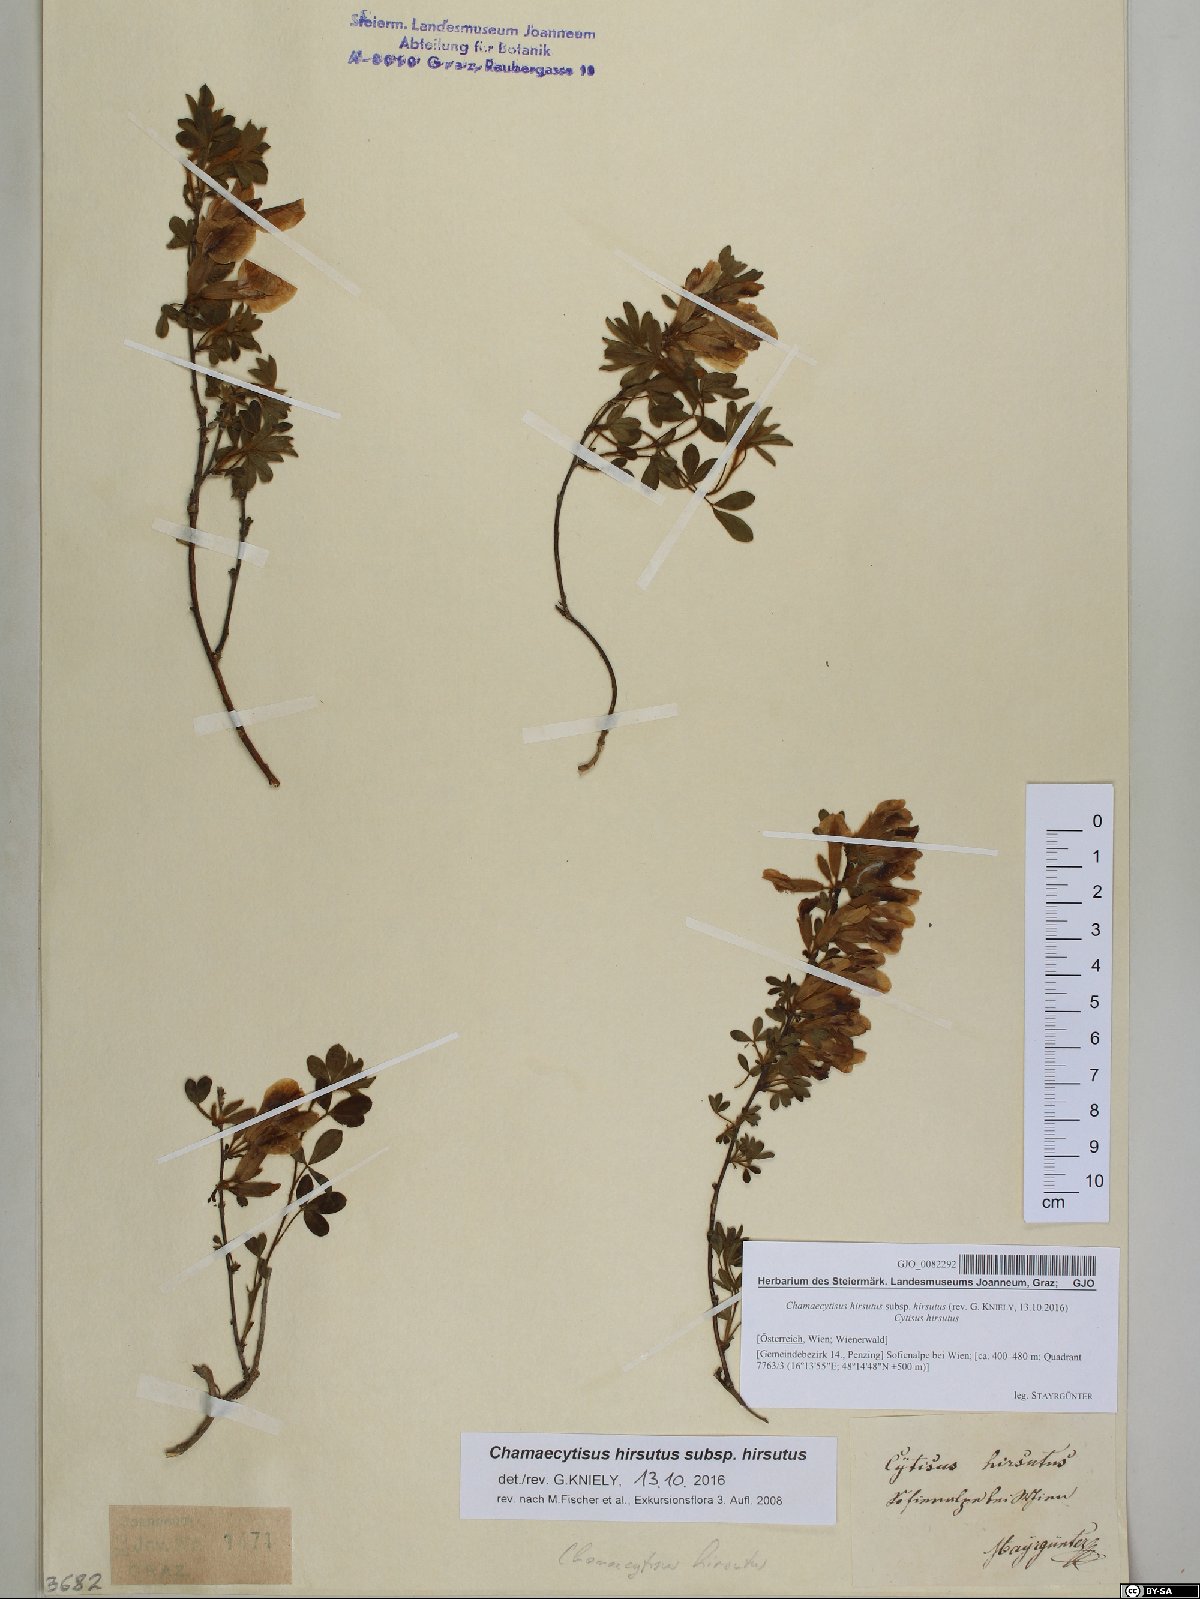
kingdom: Plantae
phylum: Tracheophyta
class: Magnoliopsida
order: Fabales
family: Fabaceae
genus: Chamaecytisus
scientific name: Chamaecytisus hirsutus
